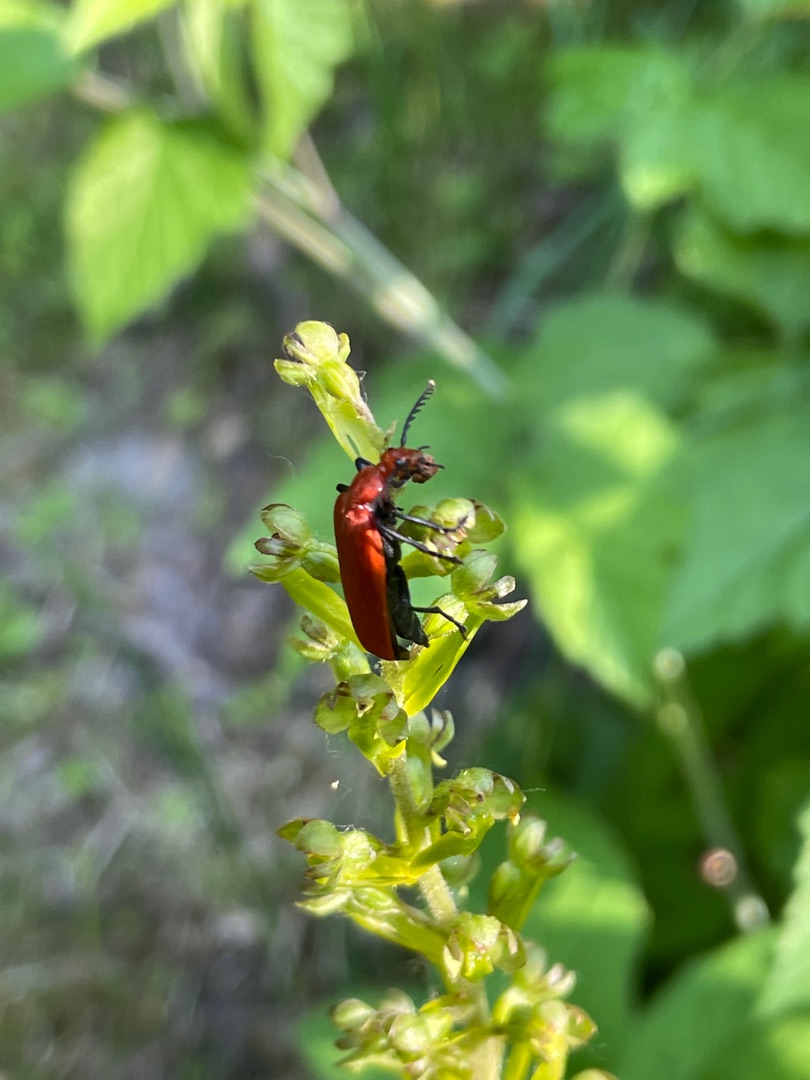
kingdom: Animalia
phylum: Arthropoda
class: Insecta
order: Coleoptera
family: Pyrochroidae
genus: Pyrochroa
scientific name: Pyrochroa serraticornis
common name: Rødhovedet kardinalbille
